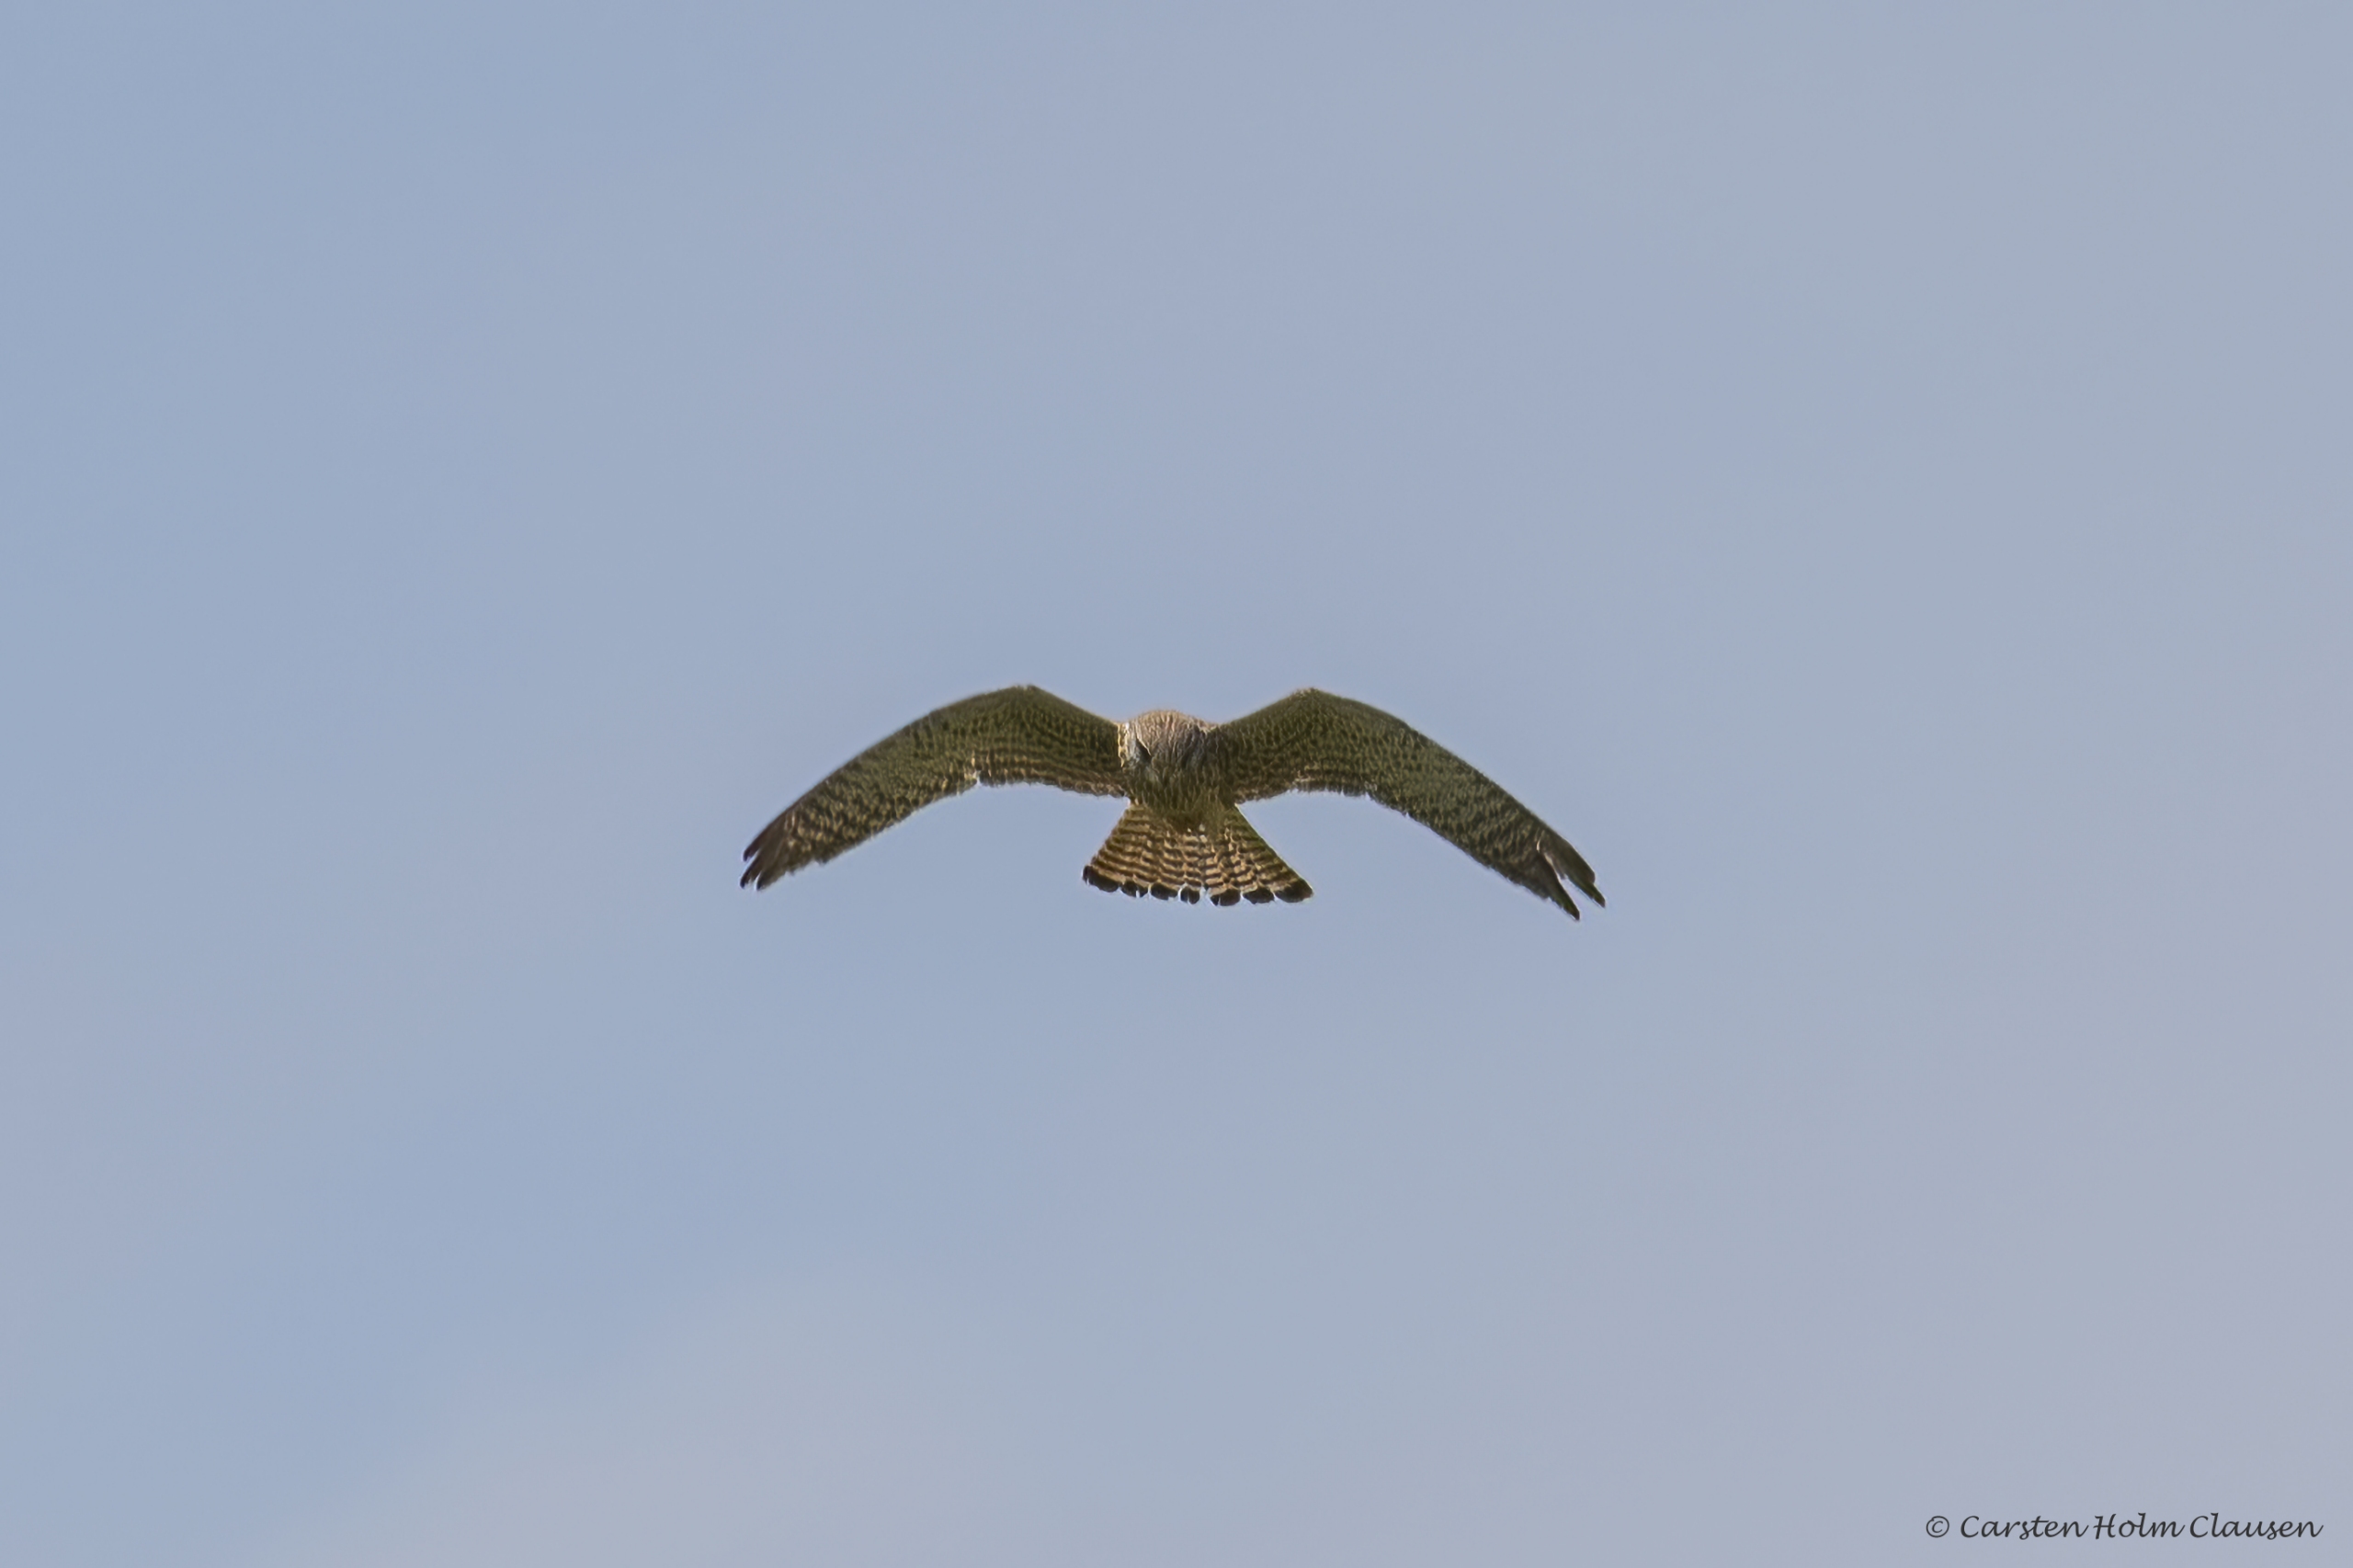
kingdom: Animalia
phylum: Chordata
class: Aves
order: Falconiformes
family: Falconidae
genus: Falco
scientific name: Falco tinnunculus
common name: Tårnfalk
